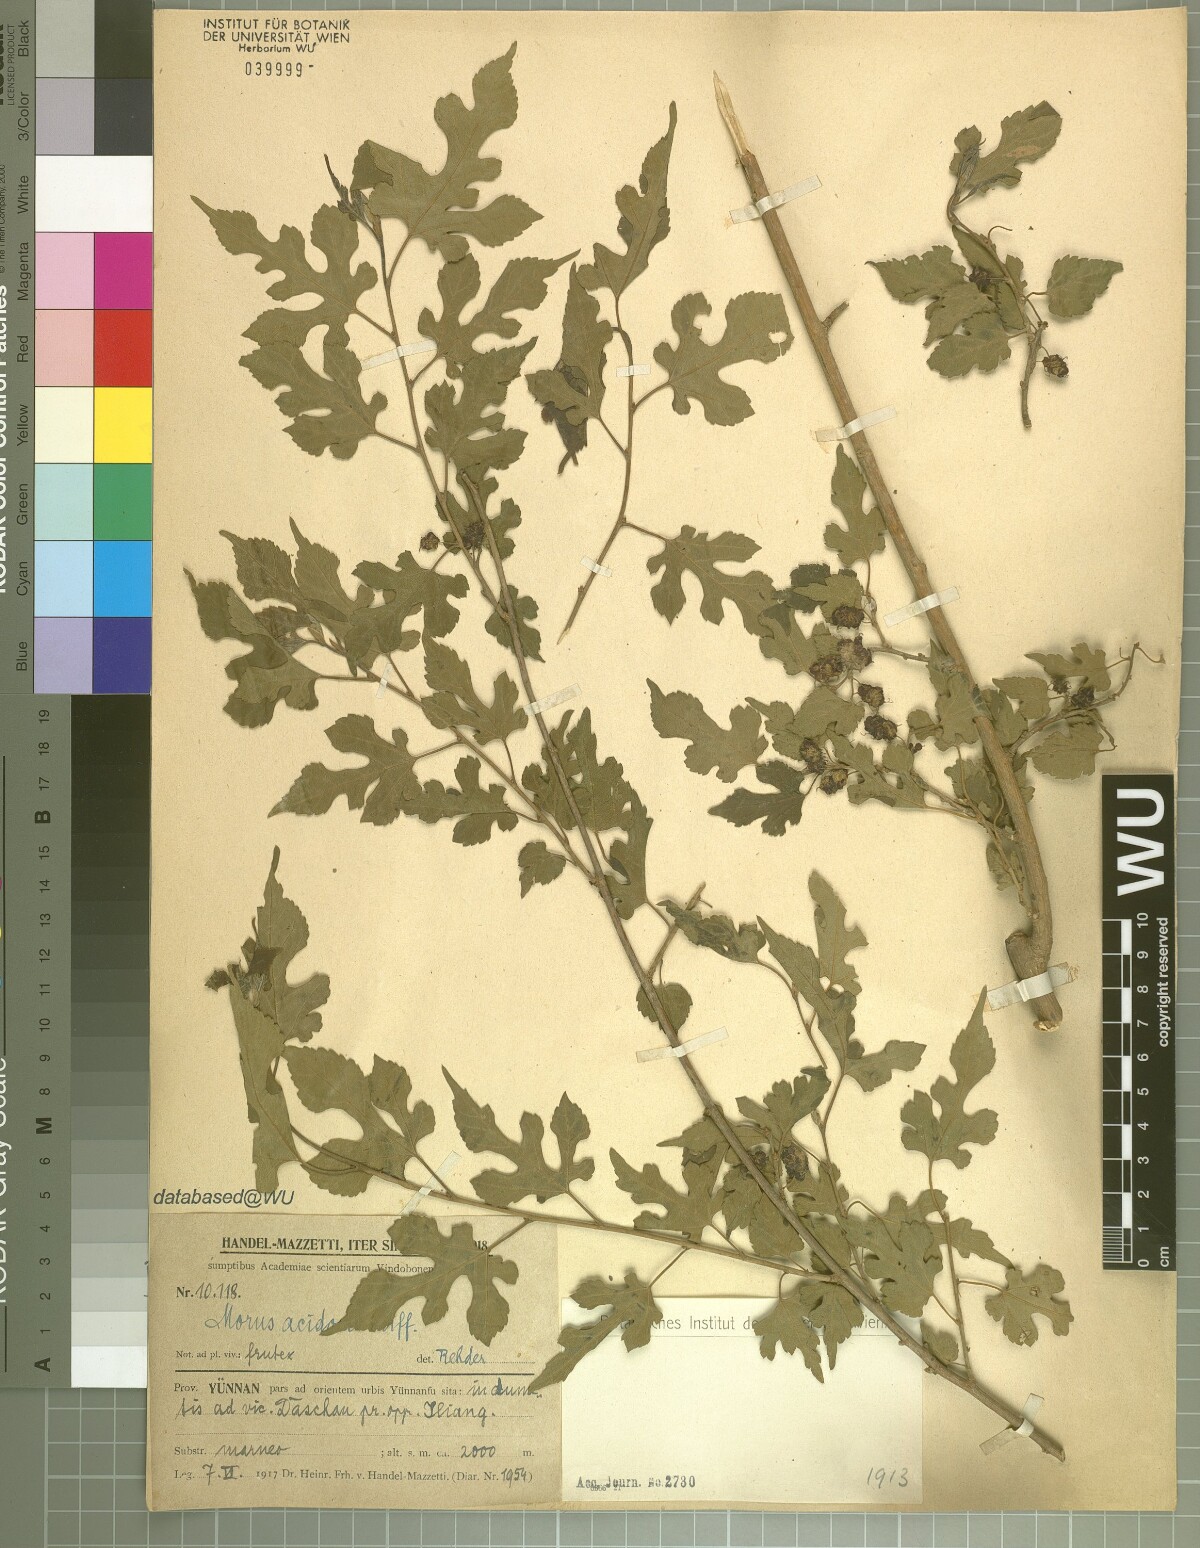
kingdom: Plantae
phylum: Tracheophyta
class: Magnoliopsida
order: Rosales
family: Moraceae
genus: Broussonetia
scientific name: Broussonetia papyrifera
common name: Paper mulberry
